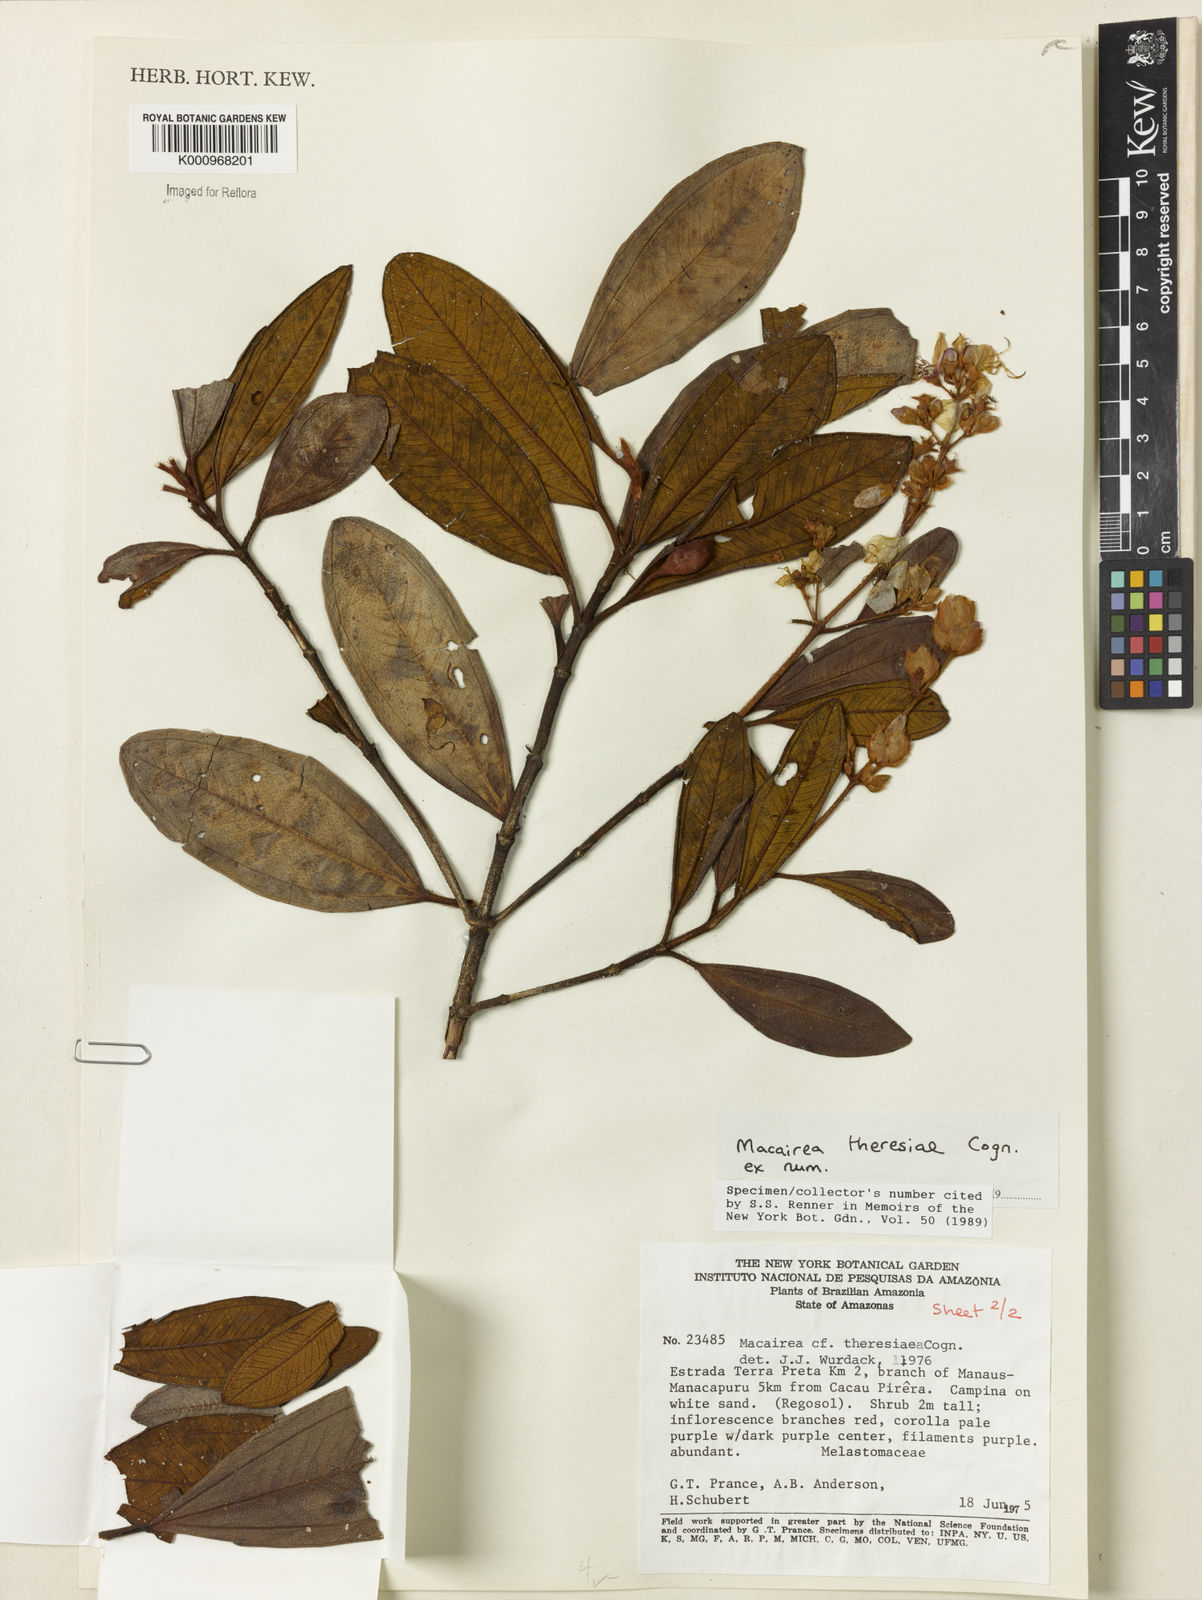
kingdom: Plantae
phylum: Tracheophyta
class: Magnoliopsida
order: Myrtales
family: Melastomataceae
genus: Macairea
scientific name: Macairea theresiae
